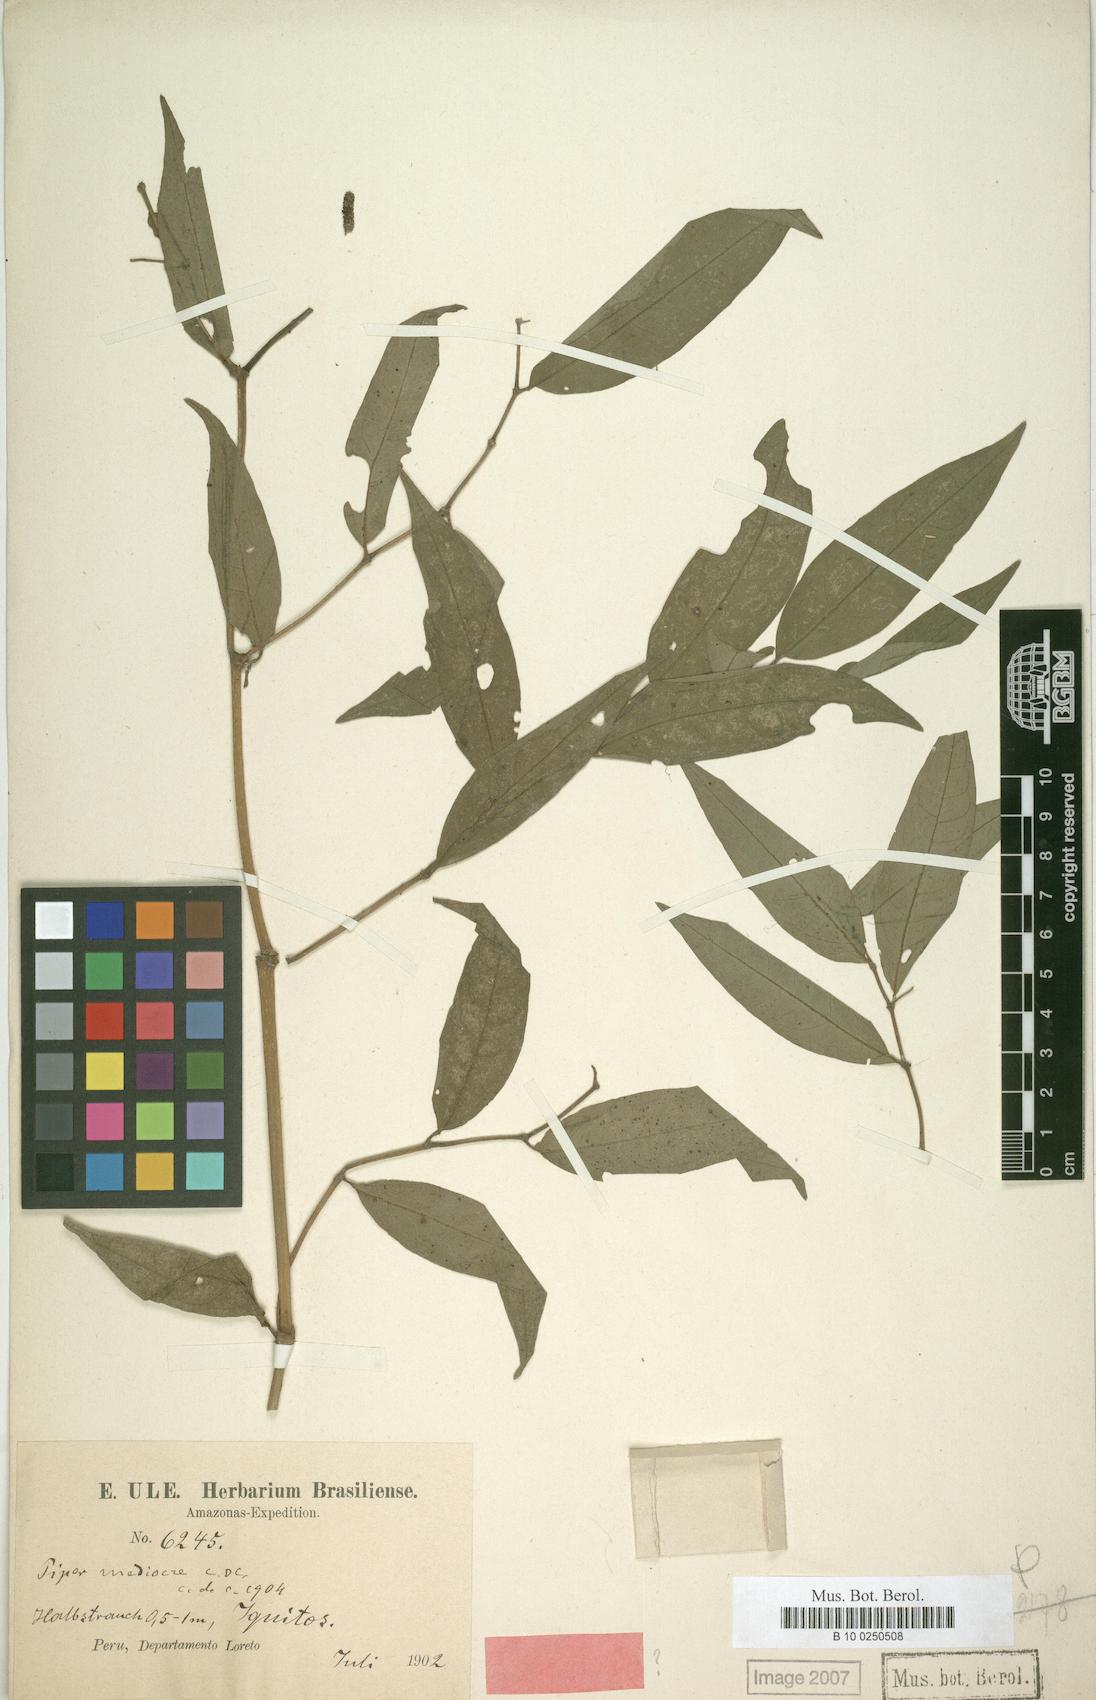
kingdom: Plantae
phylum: Tracheophyta
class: Magnoliopsida
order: Piperales
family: Piperaceae
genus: Piper
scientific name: Piper mediocre
